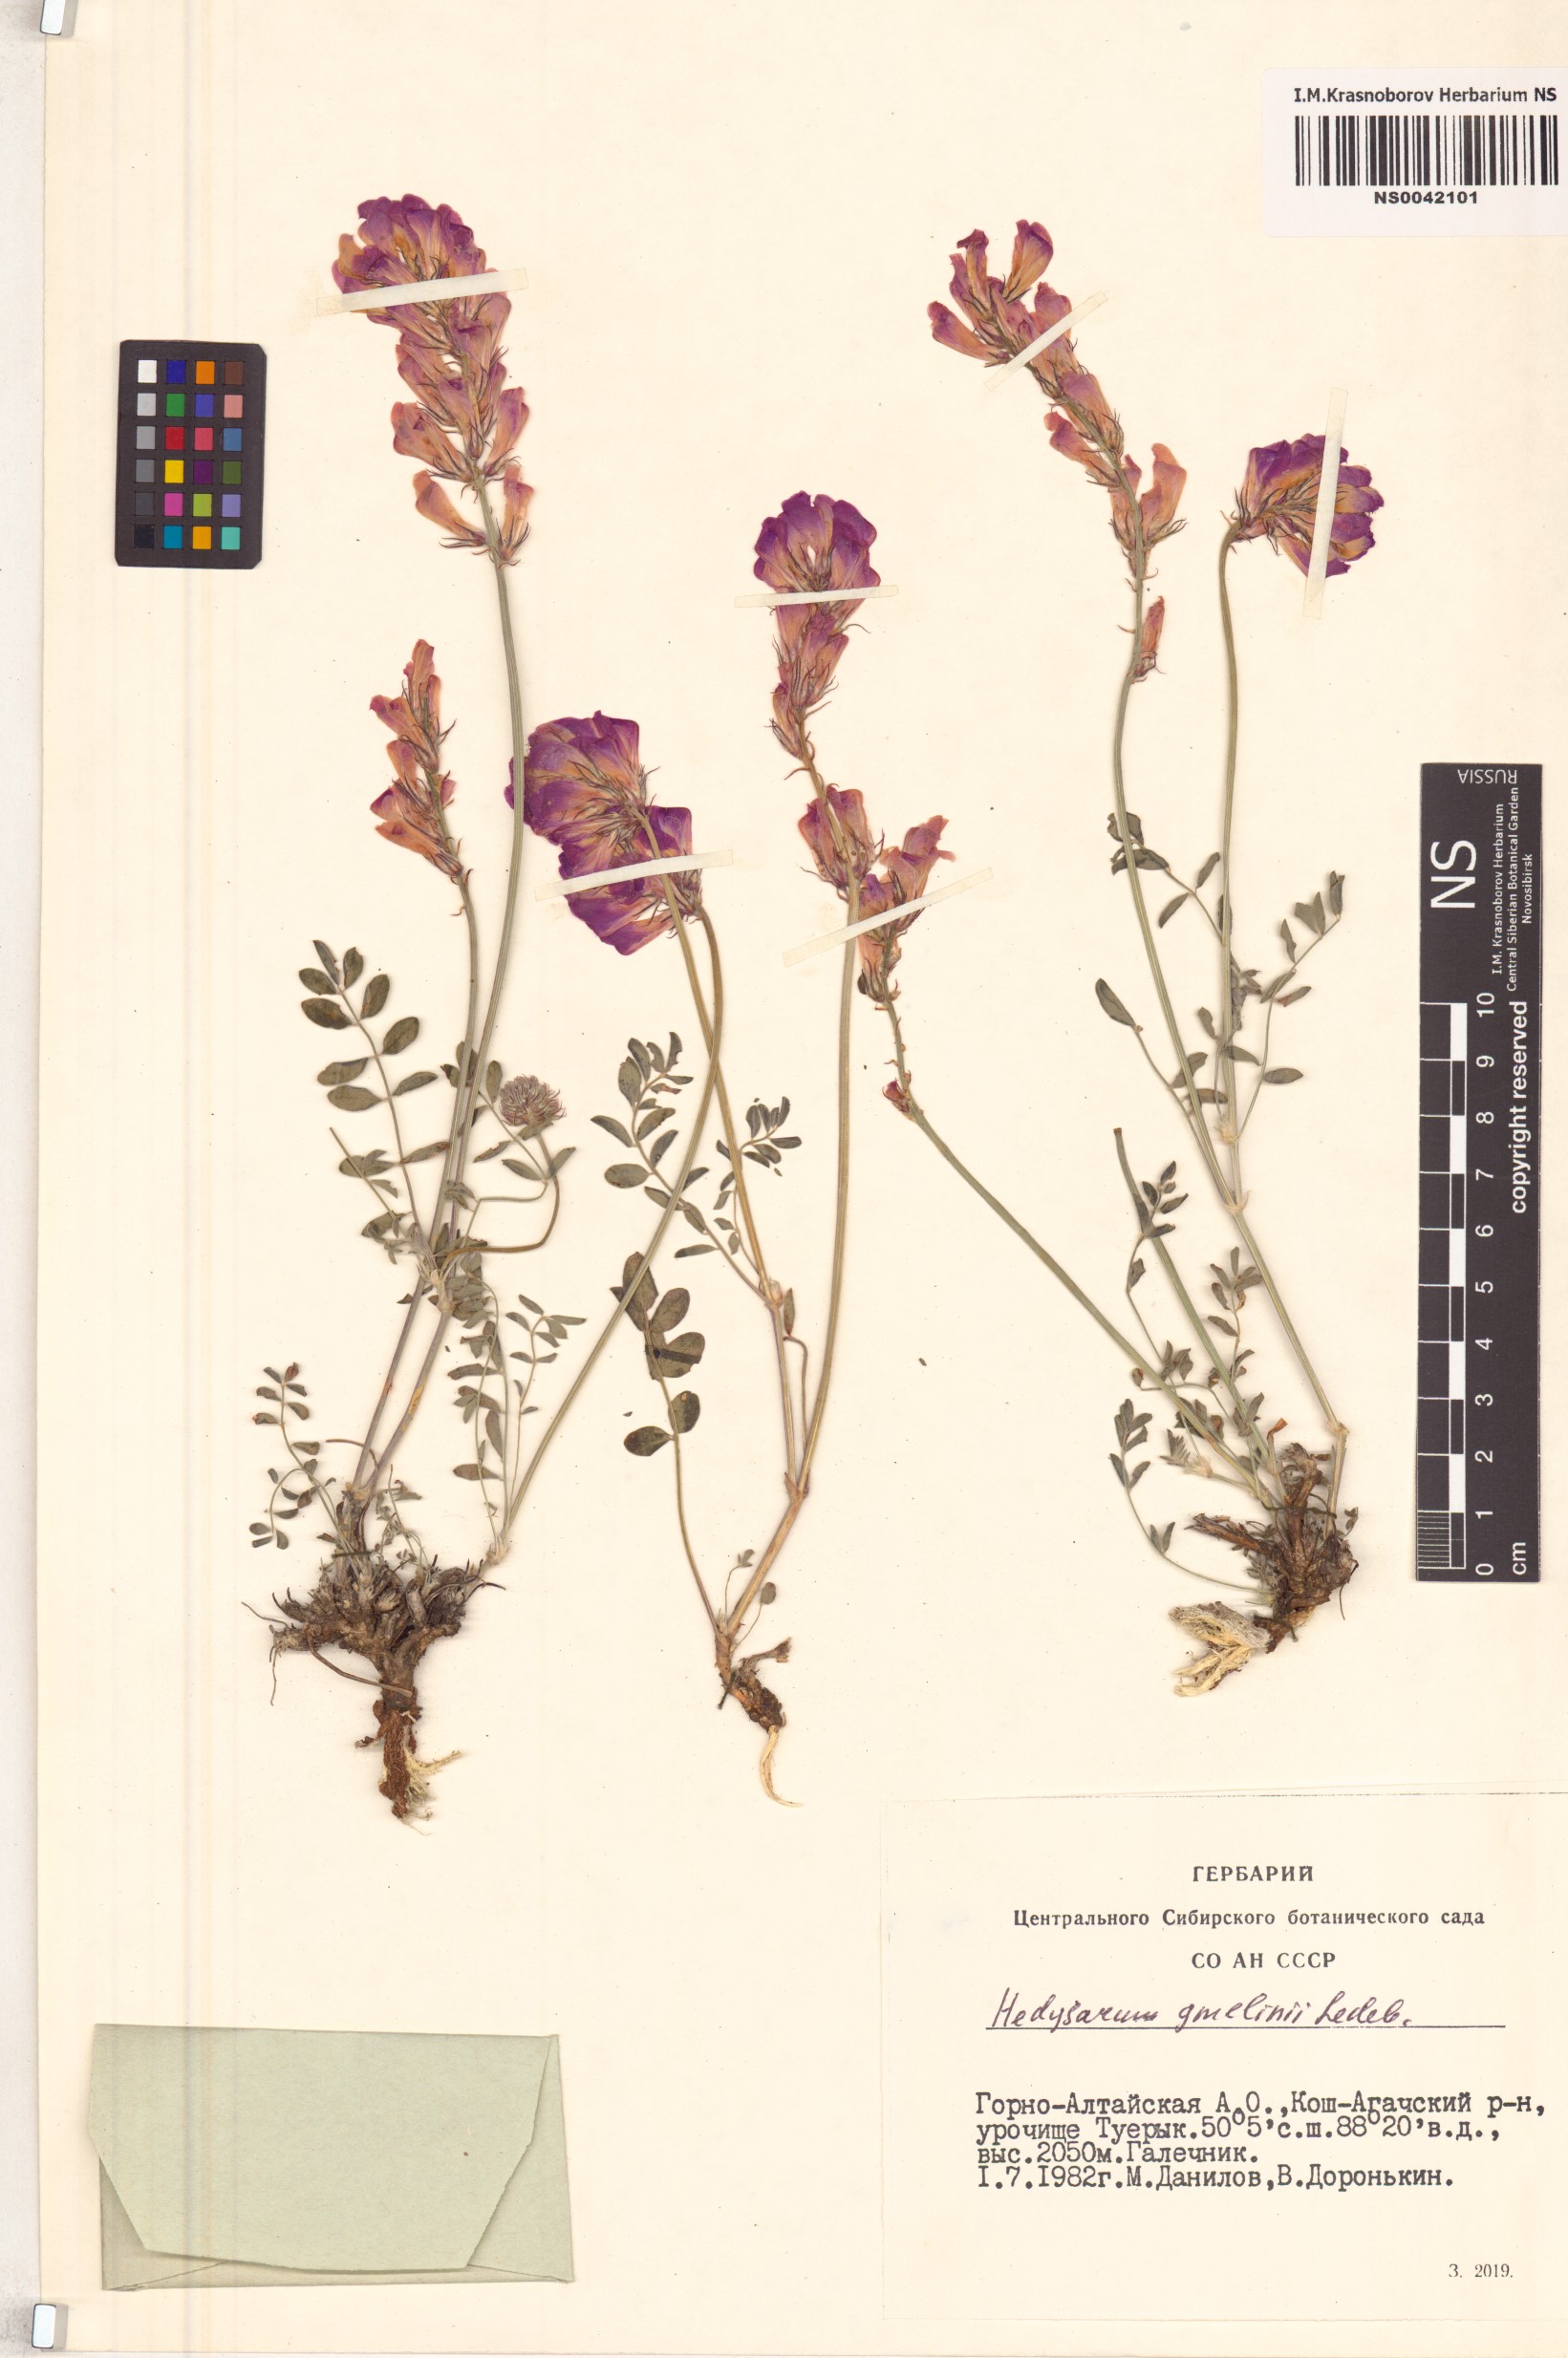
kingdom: Plantae
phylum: Tracheophyta
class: Magnoliopsida
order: Fabales
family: Fabaceae
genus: Hedysarum
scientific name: Hedysarum gmelinii
